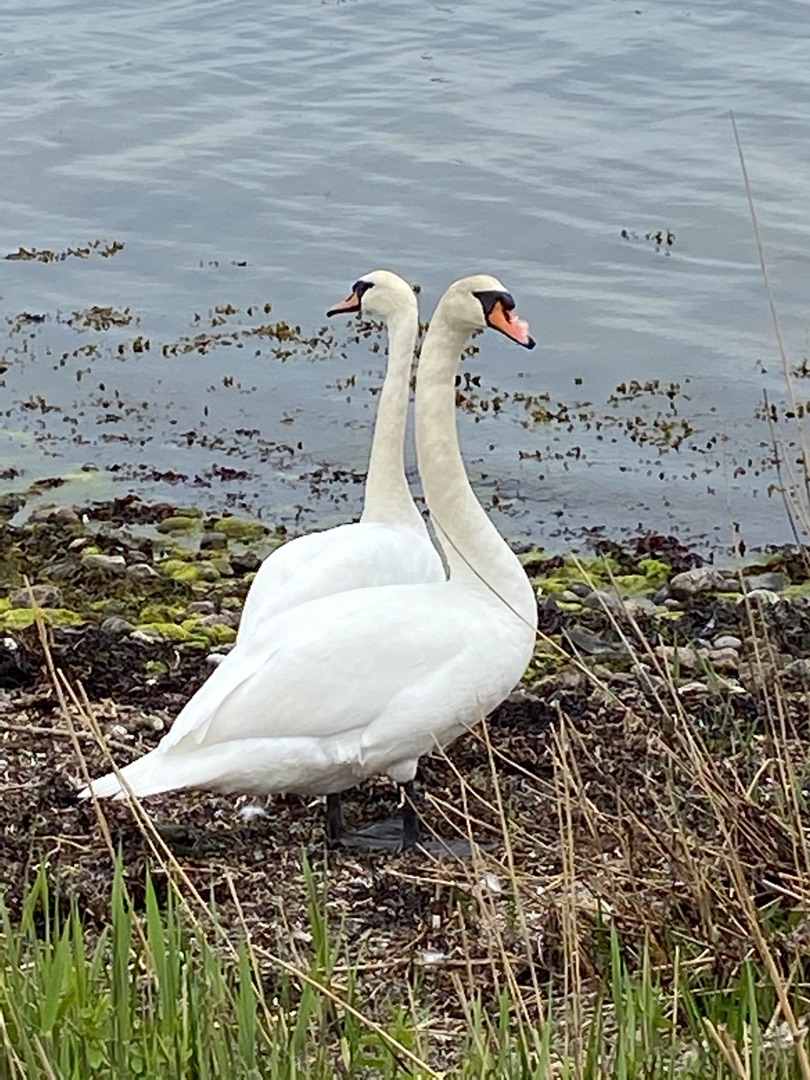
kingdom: Animalia
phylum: Chordata
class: Aves
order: Anseriformes
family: Anatidae
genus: Cygnus
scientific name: Cygnus olor
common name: Knopsvane
